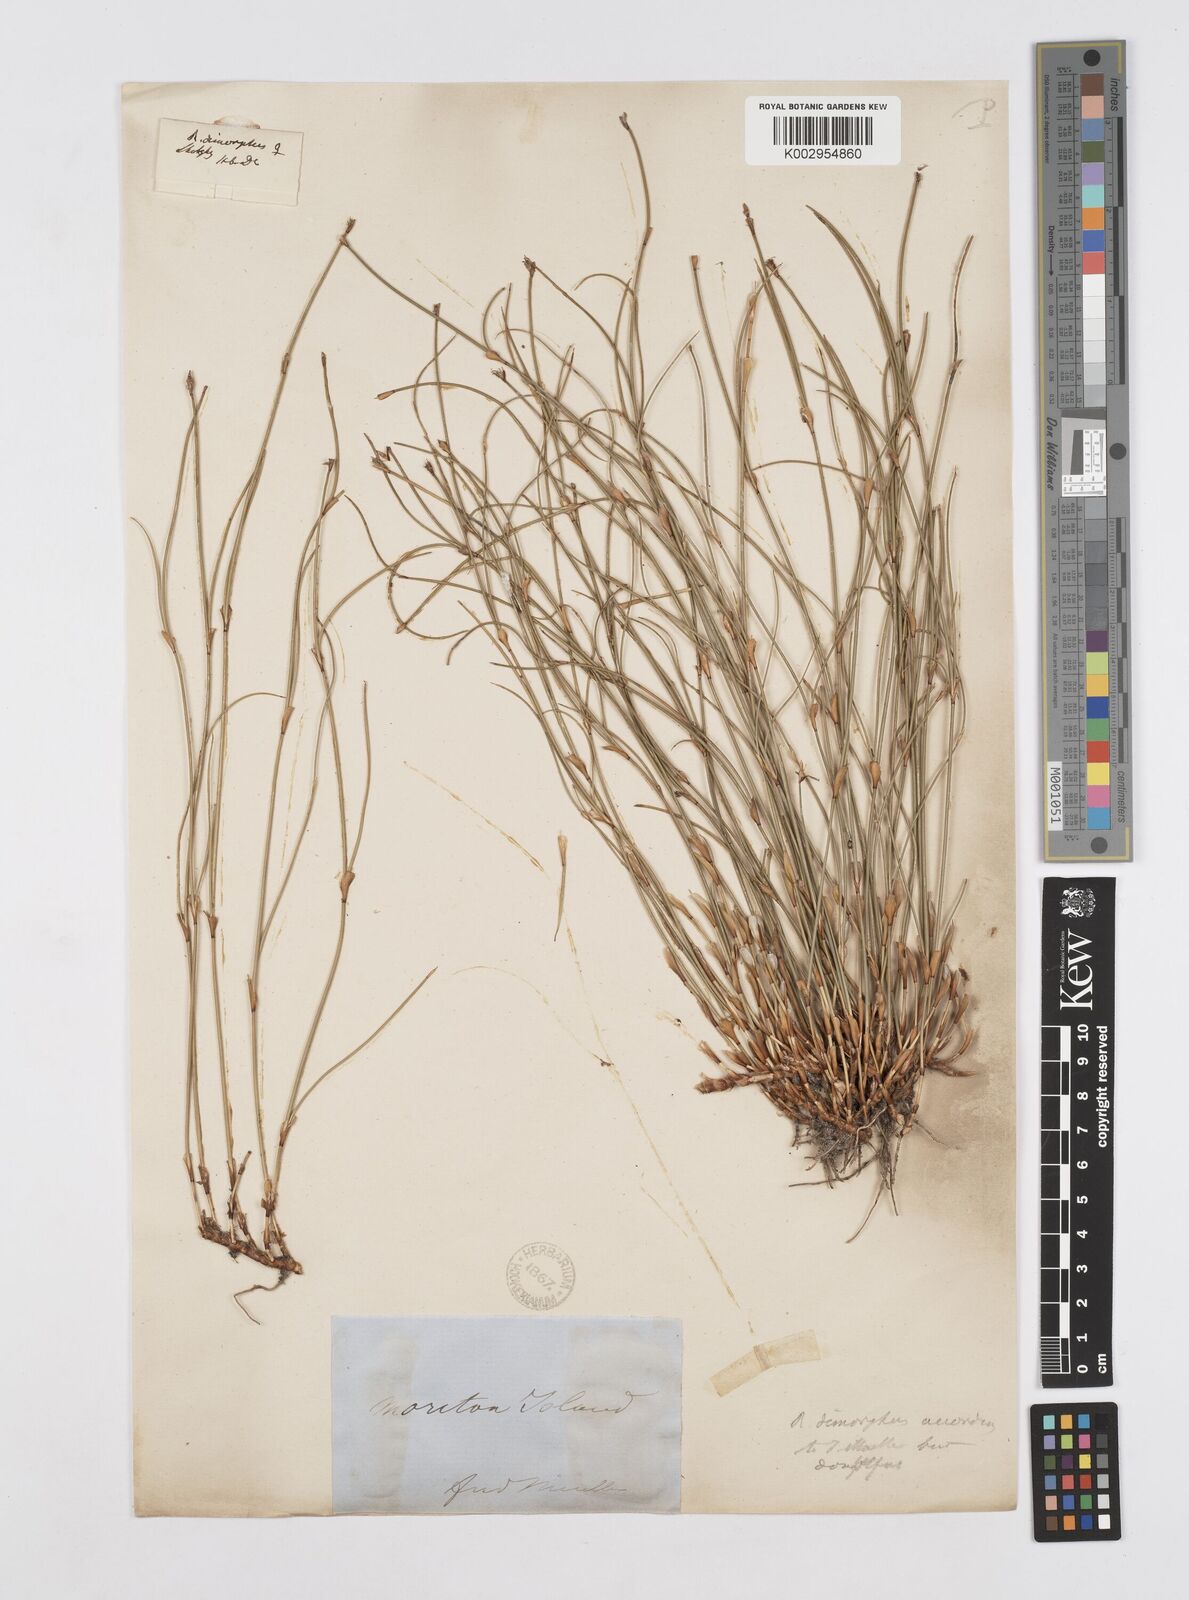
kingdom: Plantae
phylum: Tracheophyta
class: Liliopsida
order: Poales
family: Restionaceae
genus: Coleocarya
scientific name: Coleocarya gracilis
